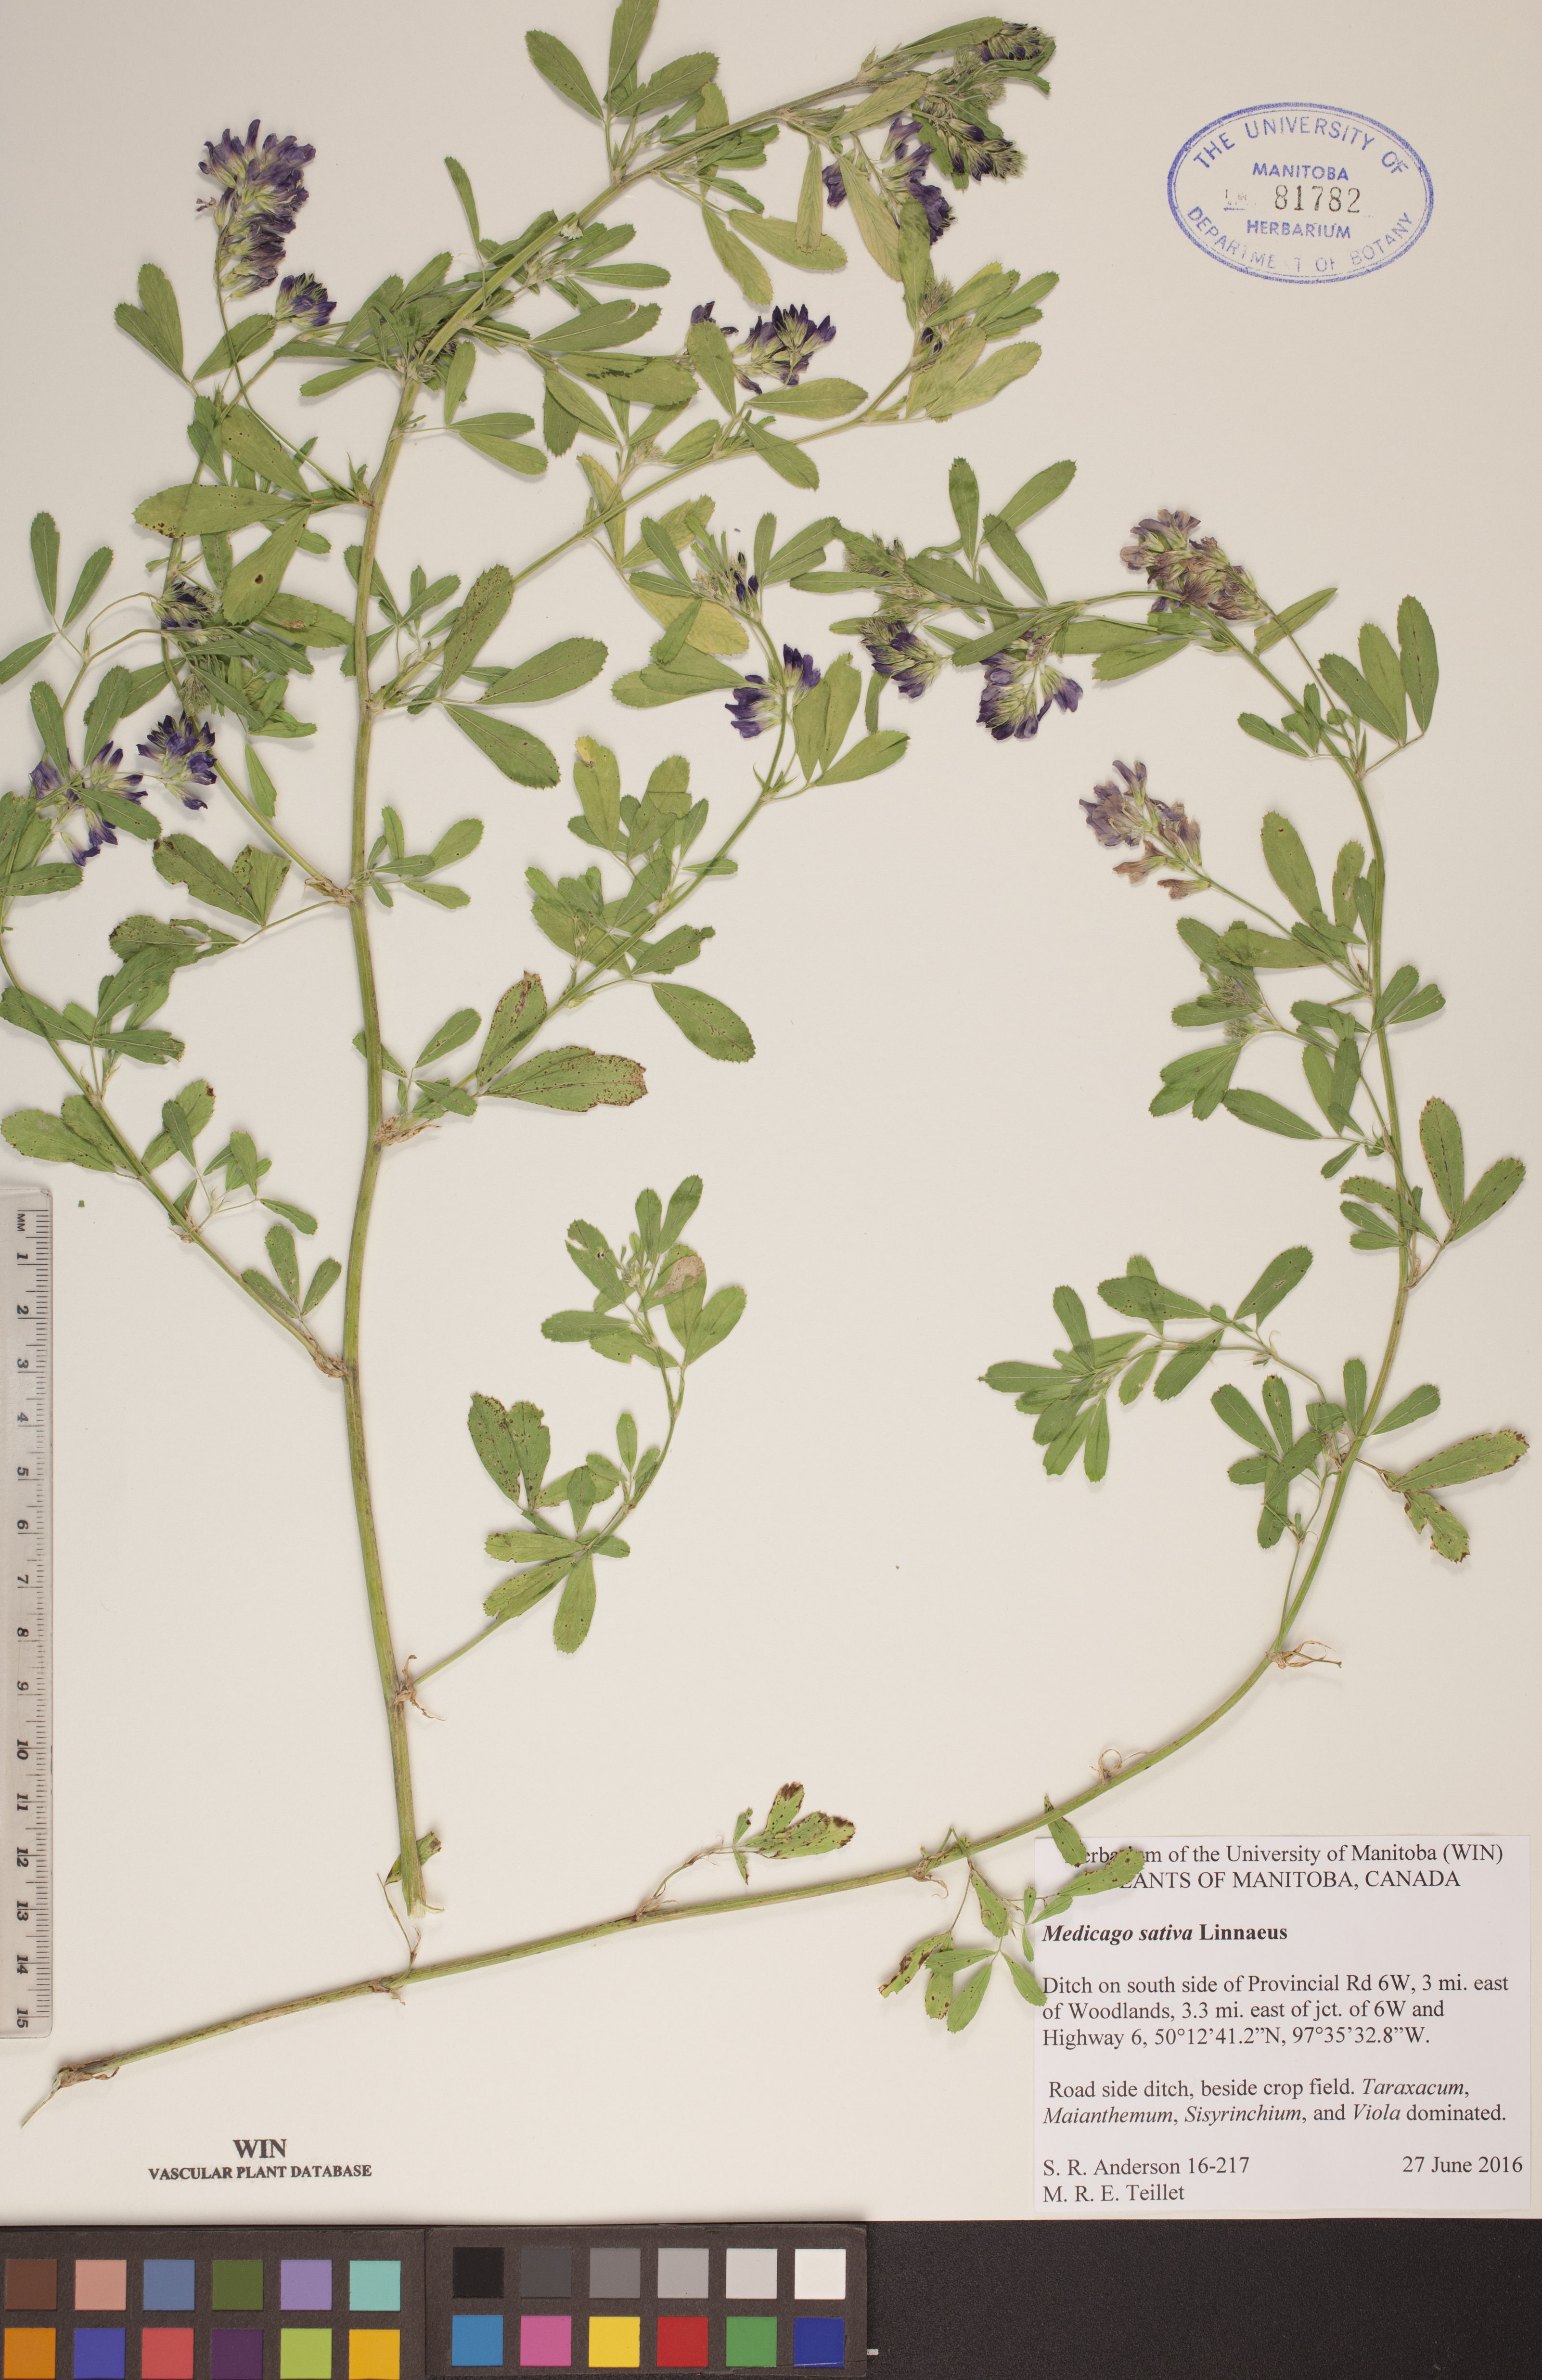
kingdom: Plantae
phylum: Tracheophyta
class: Magnoliopsida
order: Fabales
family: Fabaceae
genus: Medicago
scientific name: Medicago sativa
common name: Alfalfa
